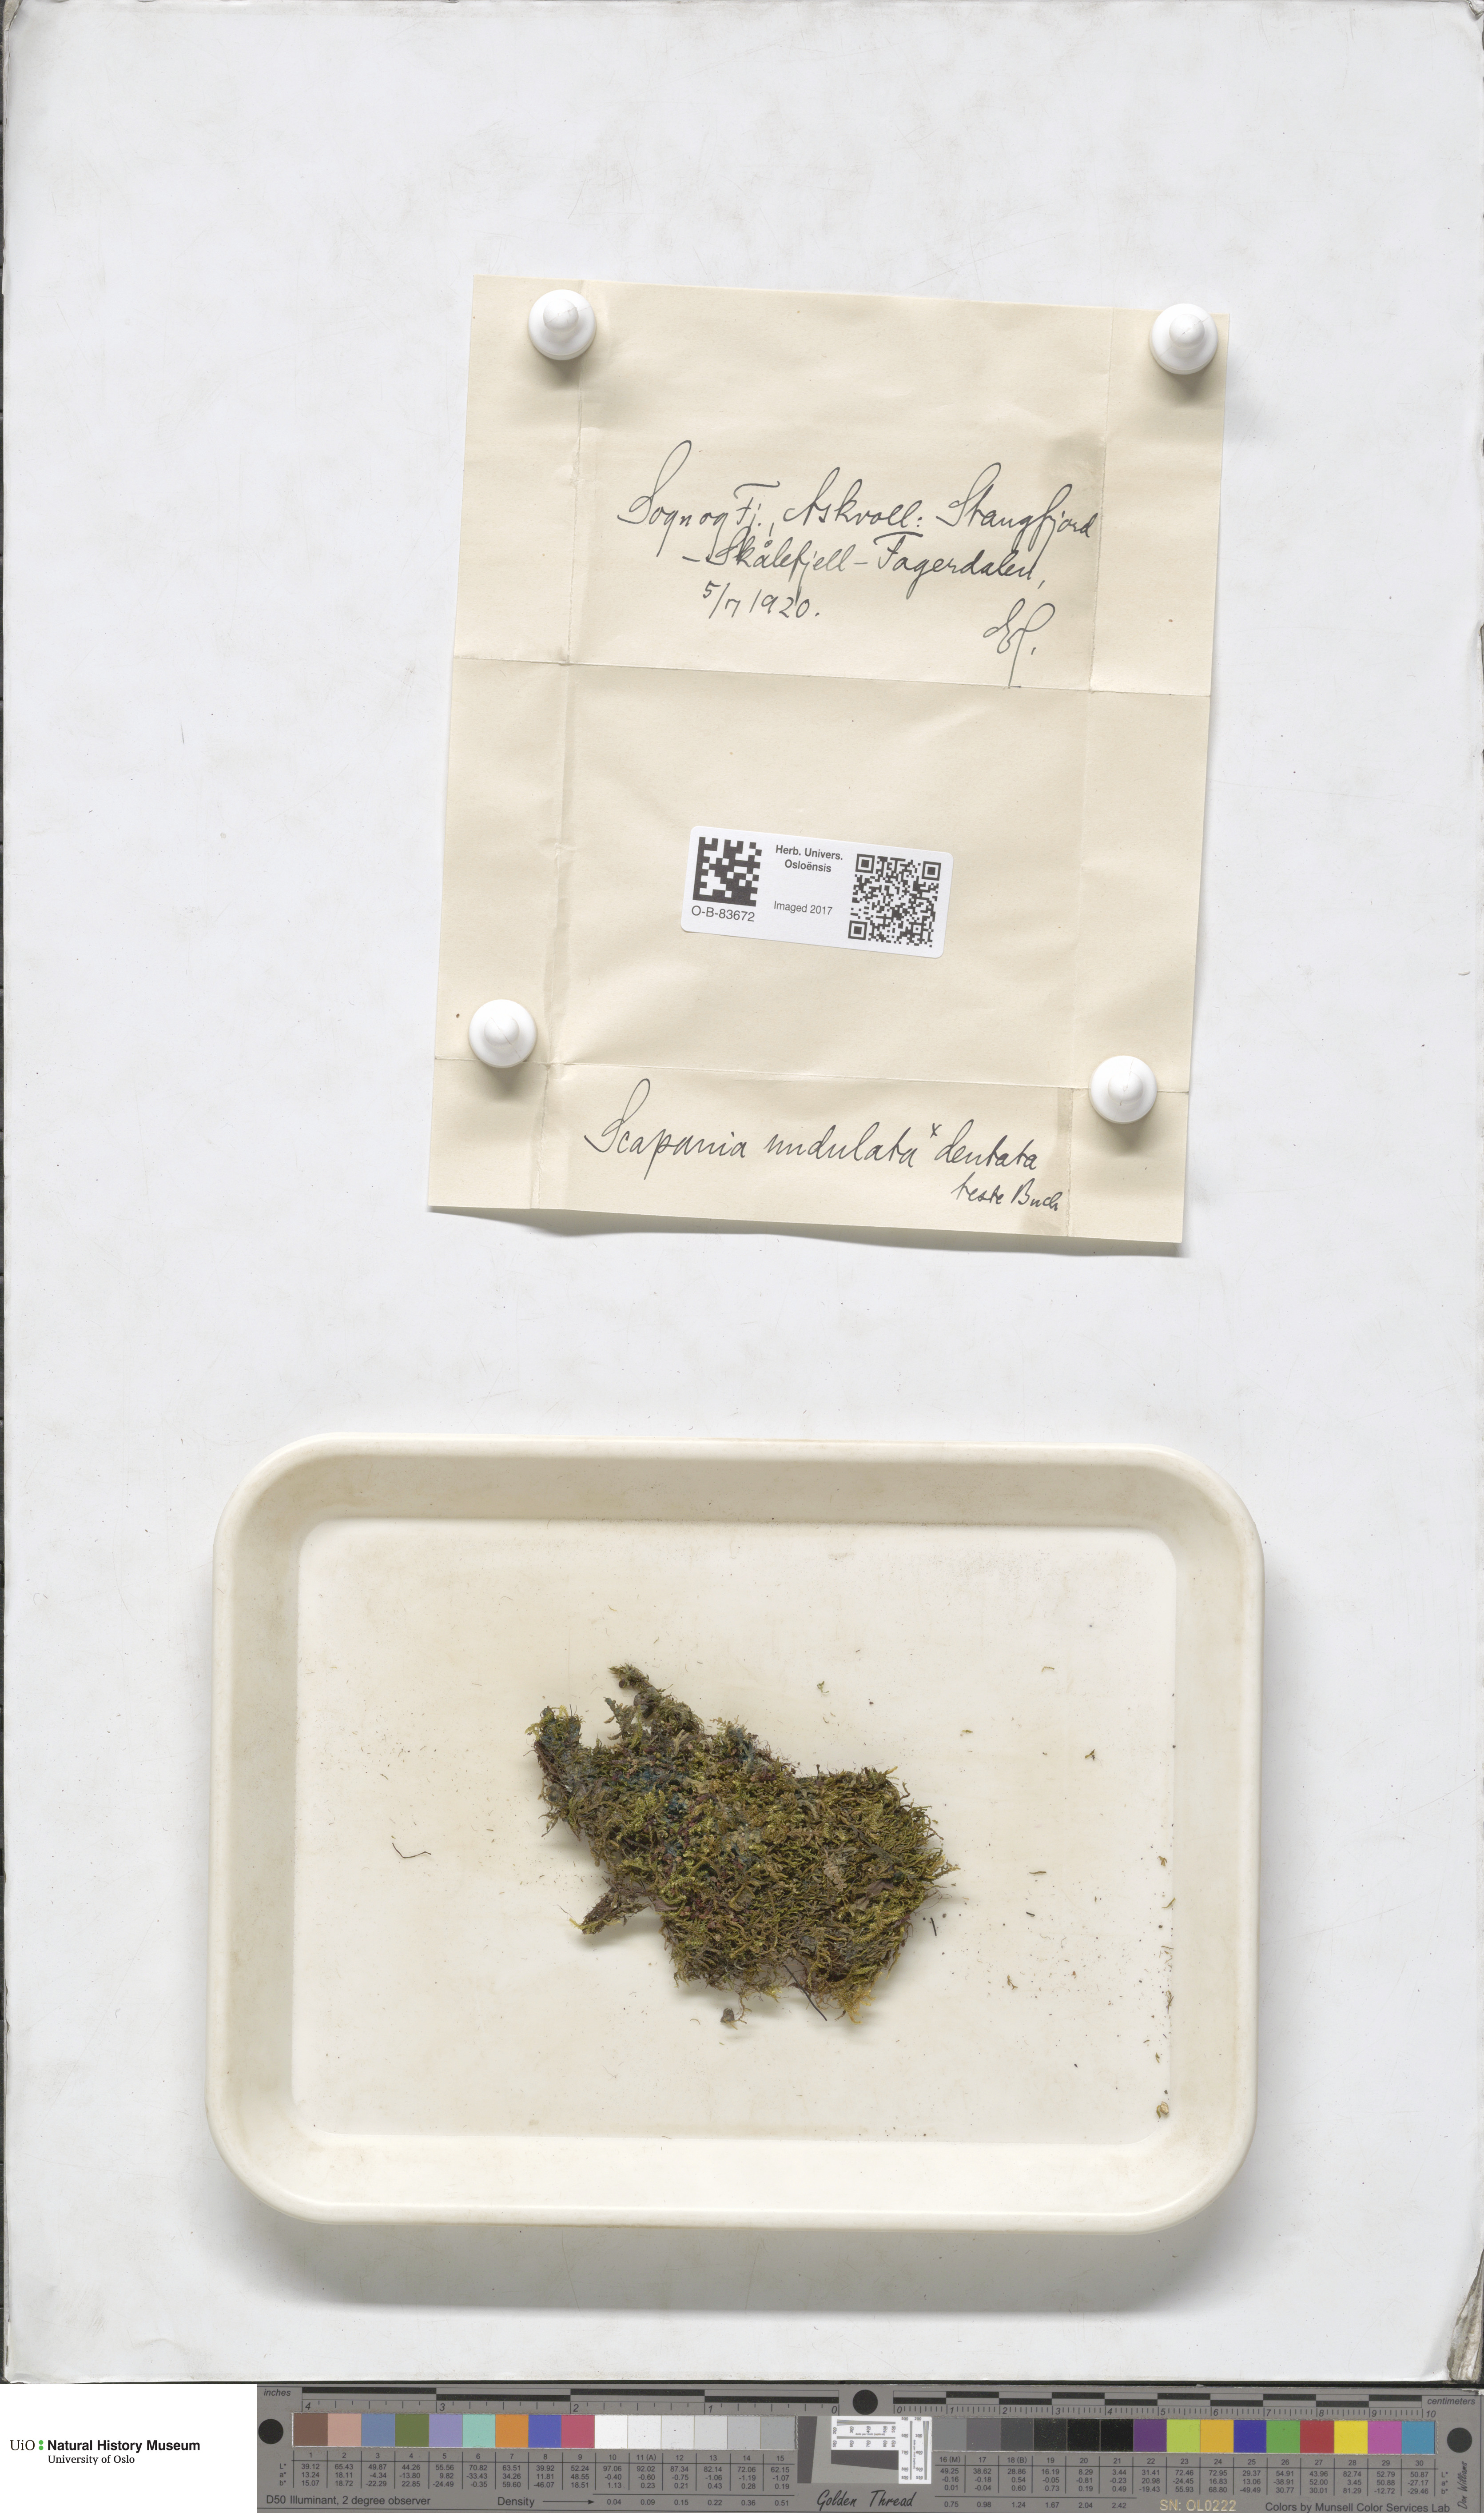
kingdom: Plantae
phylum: Marchantiophyta
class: Jungermanniopsida
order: Jungermanniales
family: Scapaniaceae
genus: Scapania
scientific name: Scapania undulata
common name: Water earwort
